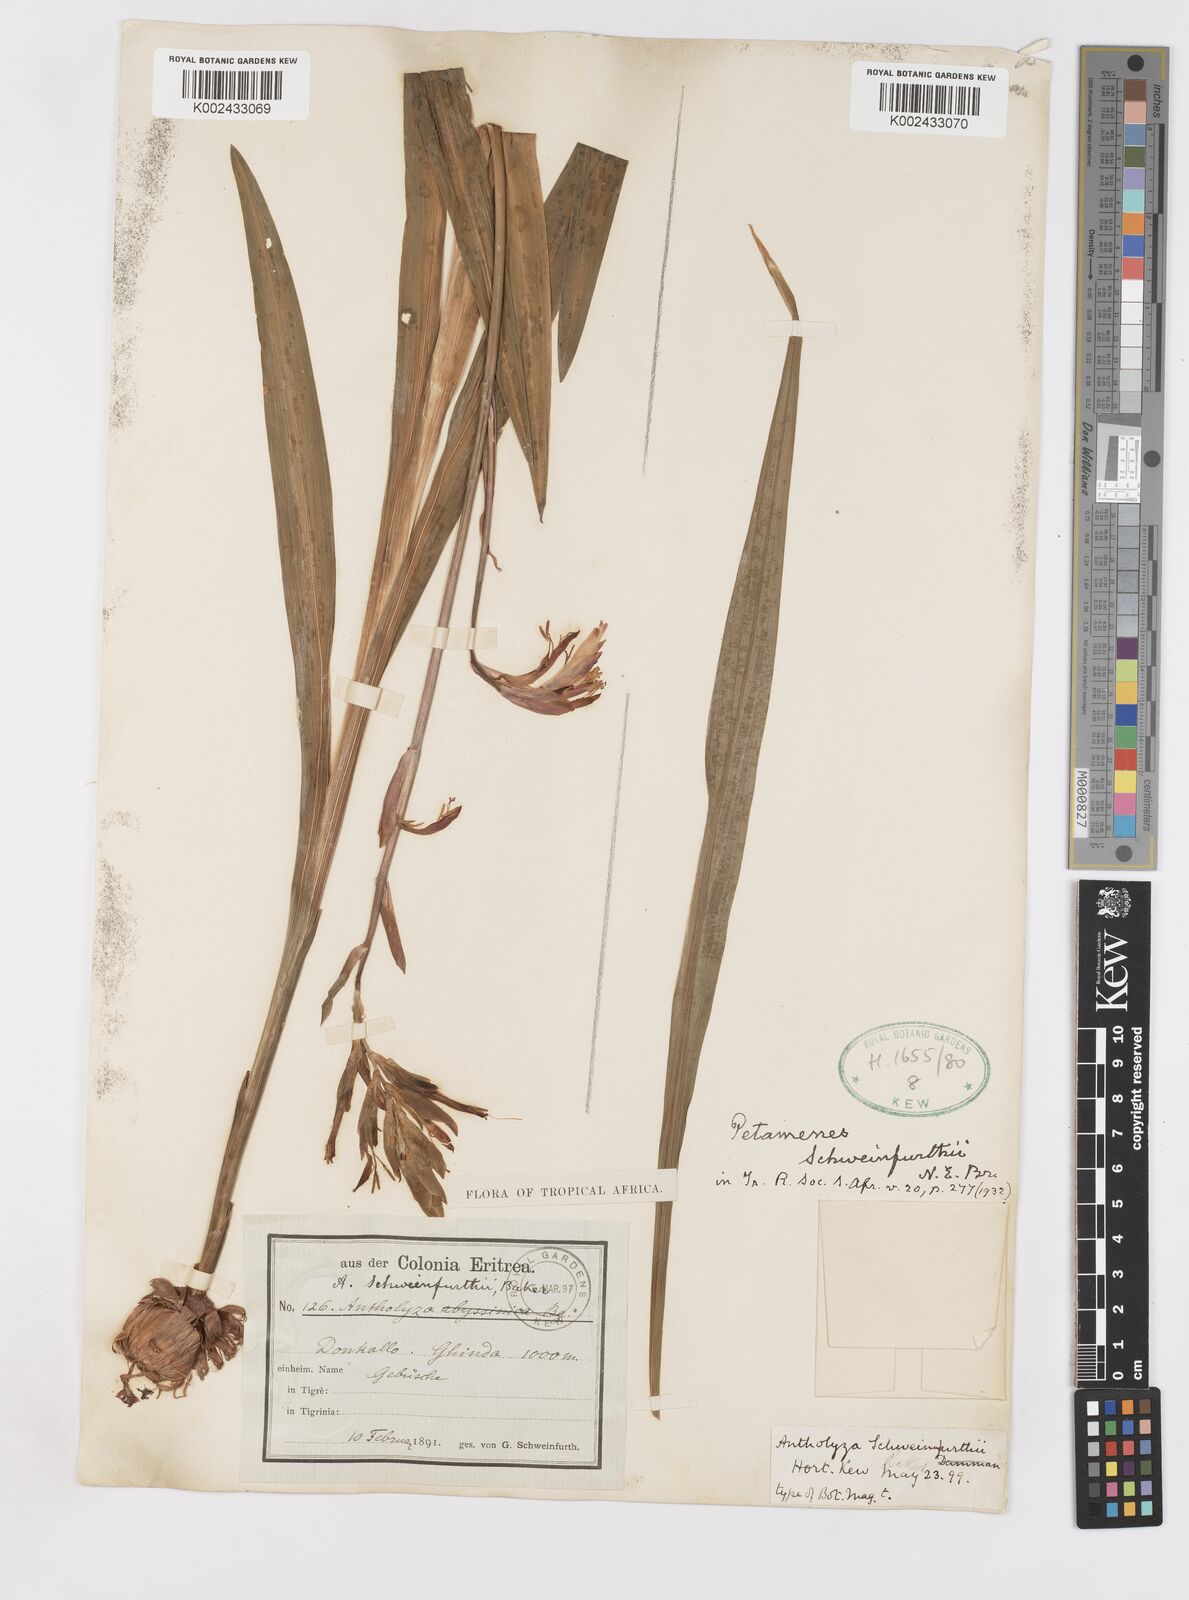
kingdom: Plantae
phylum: Tracheophyta
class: Liliopsida
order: Asparagales
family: Iridaceae
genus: Gladiolus
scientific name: Gladiolus schweinfurthii
